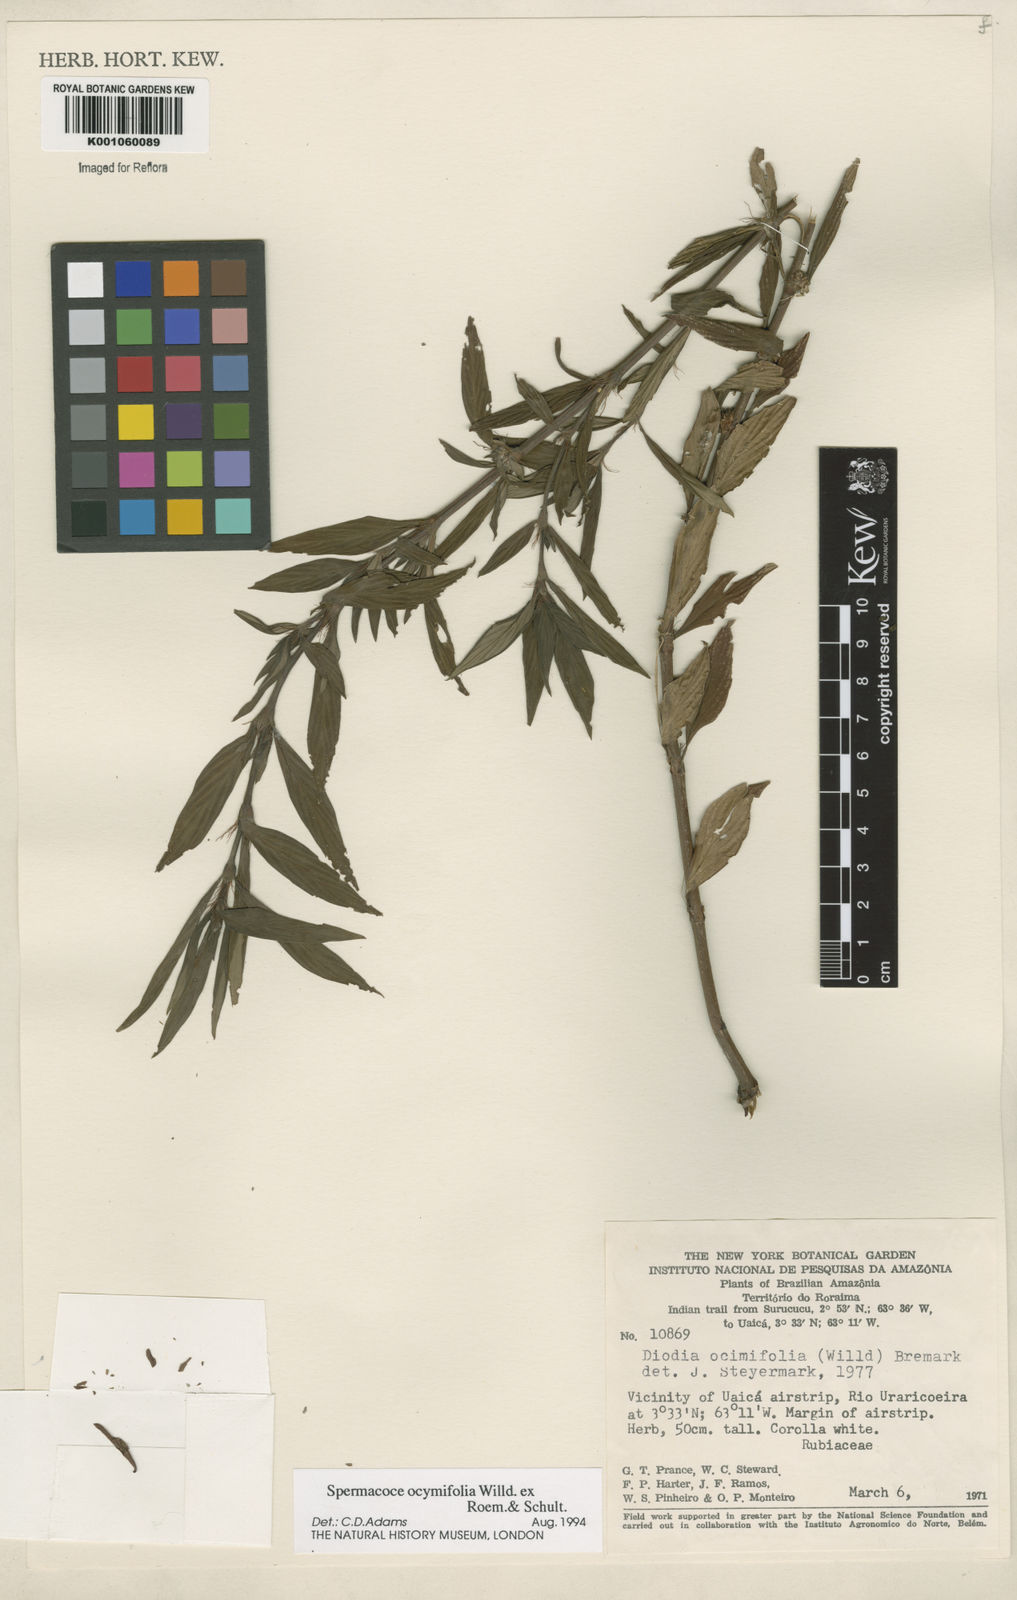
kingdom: Plantae
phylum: Tracheophyta
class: Magnoliopsida
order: Gentianales
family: Rubiaceae
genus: Spermacoce
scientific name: Spermacoce
